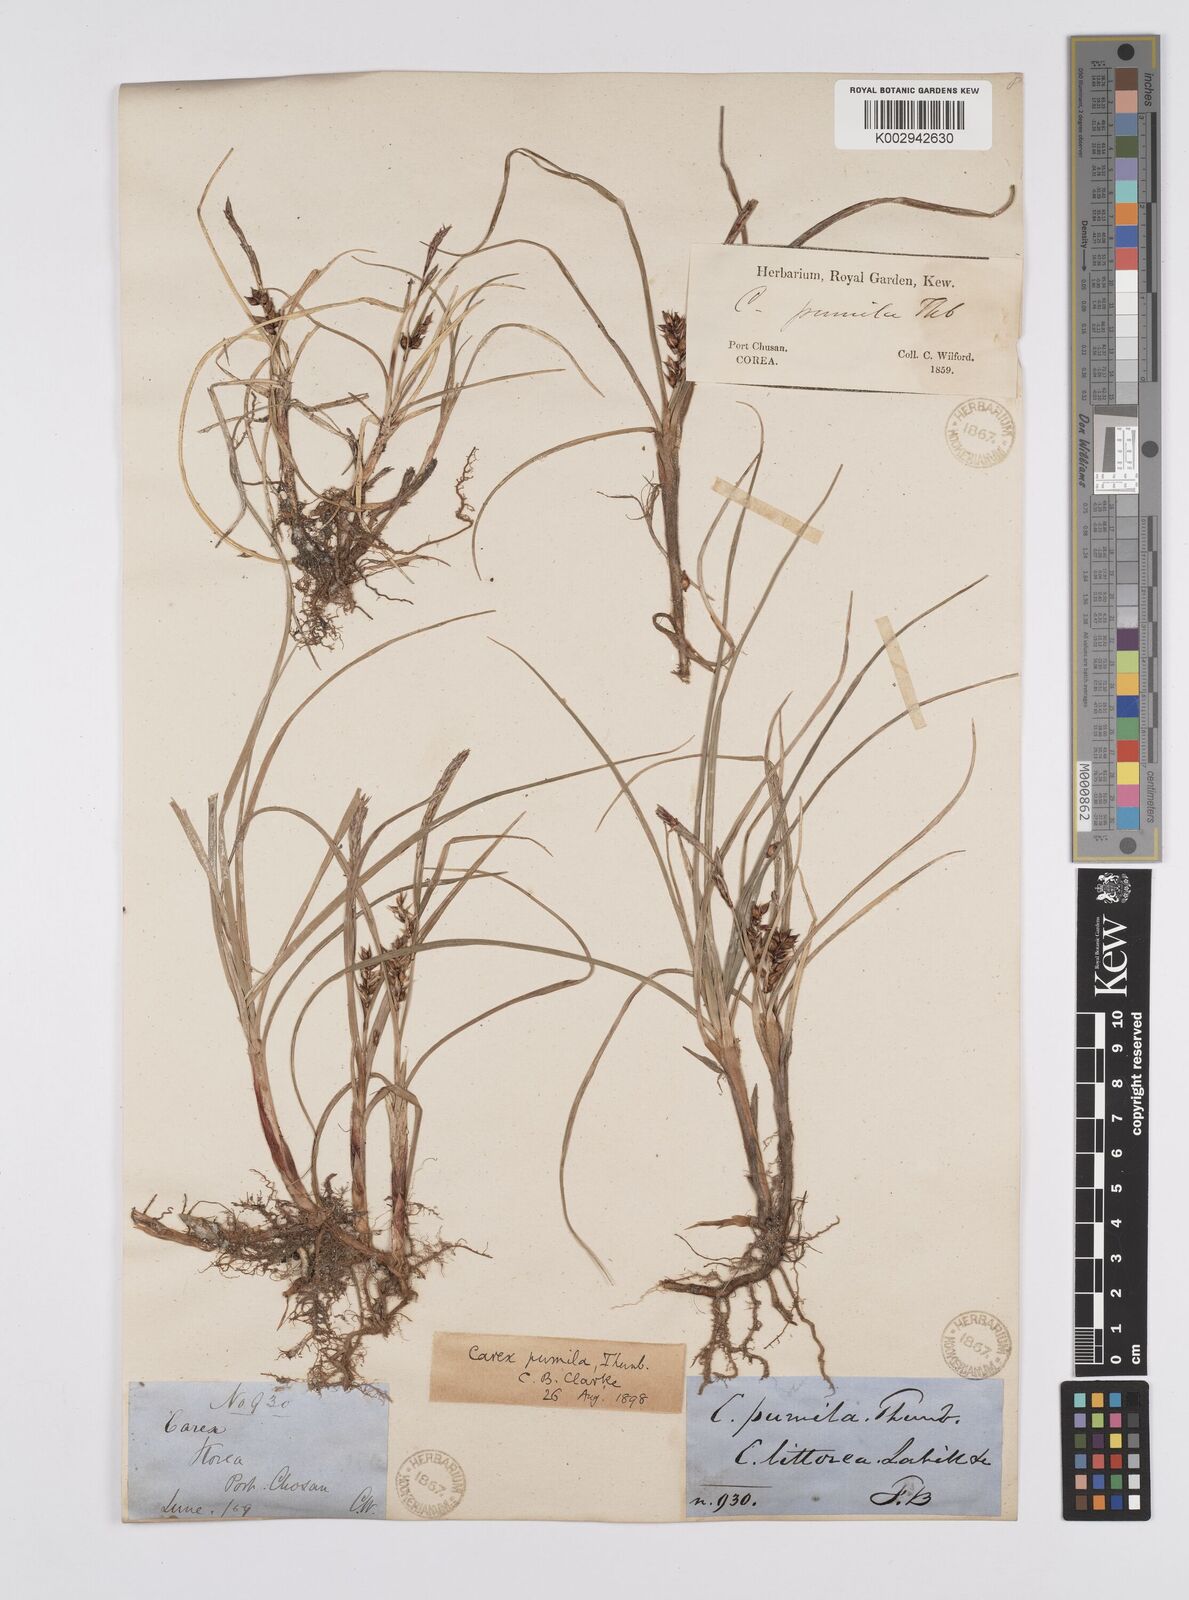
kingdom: Plantae
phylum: Tracheophyta
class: Liliopsida
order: Poales
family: Cyperaceae
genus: Carex
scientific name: Carex pumila
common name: Dwarf sedge
